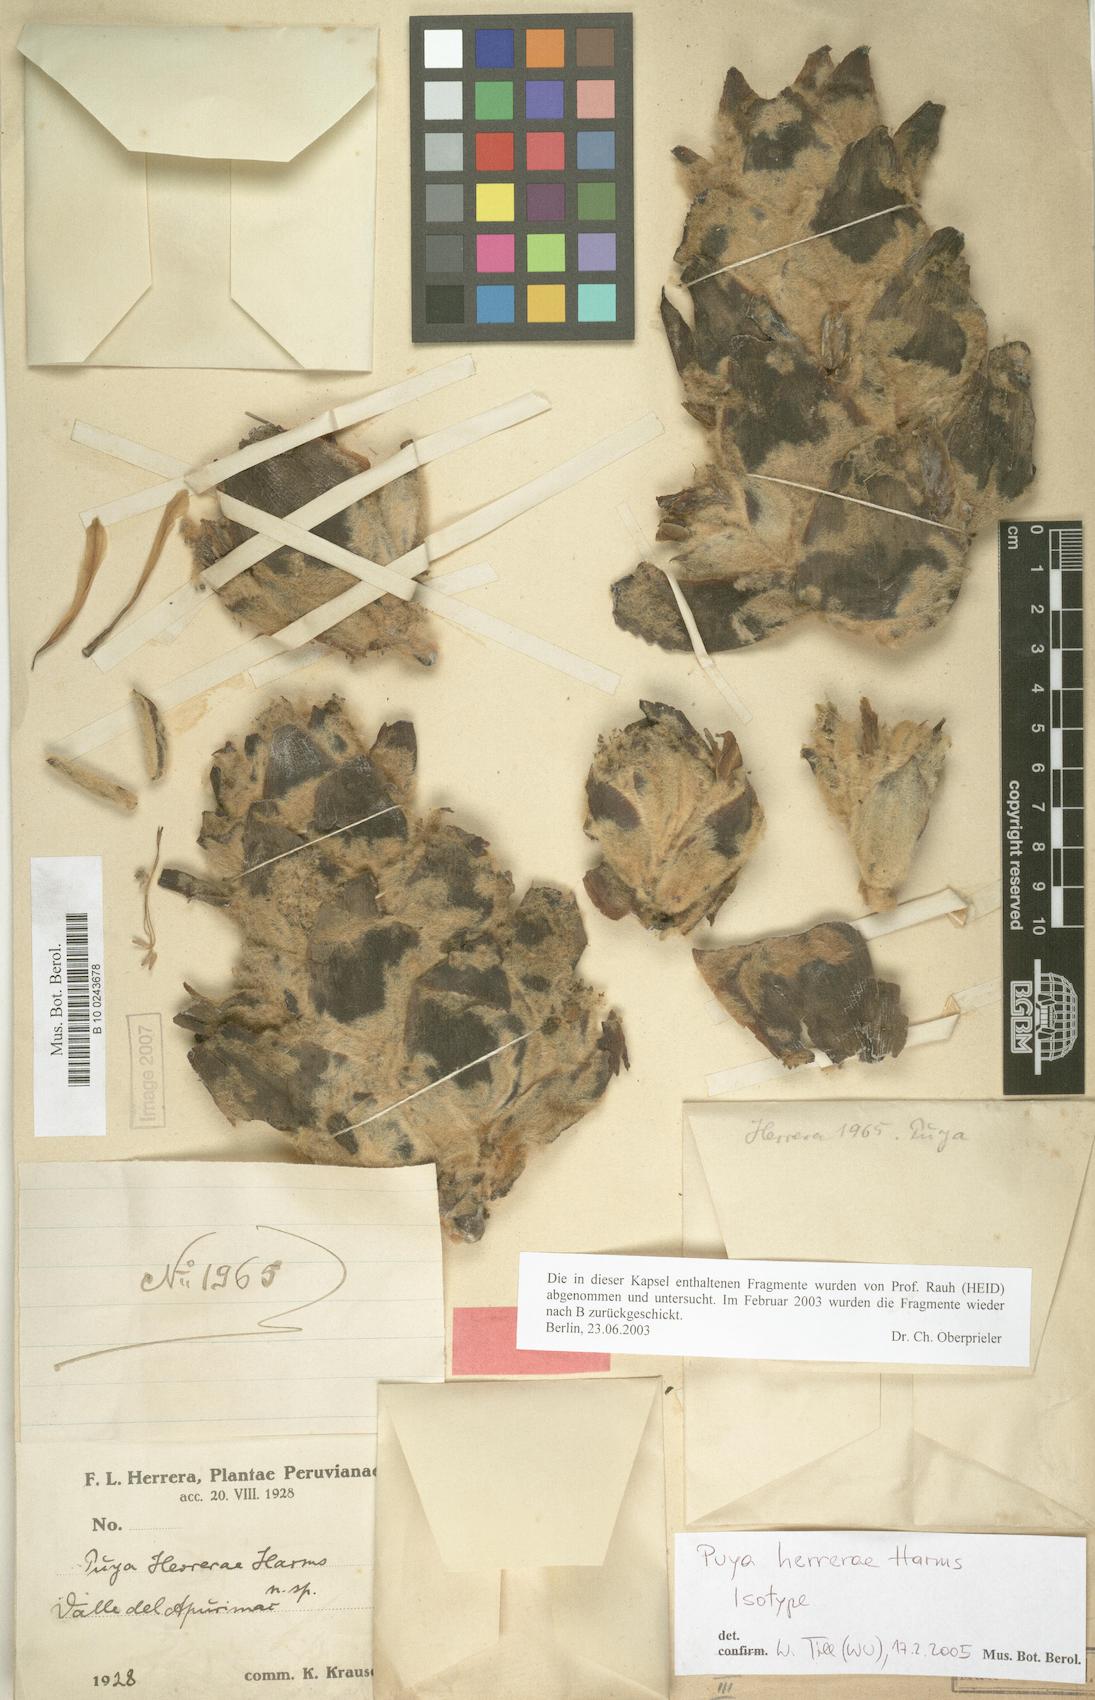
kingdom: Plantae
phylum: Tracheophyta
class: Liliopsida
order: Poales
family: Bromeliaceae
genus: Puya
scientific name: Puya herrerae
